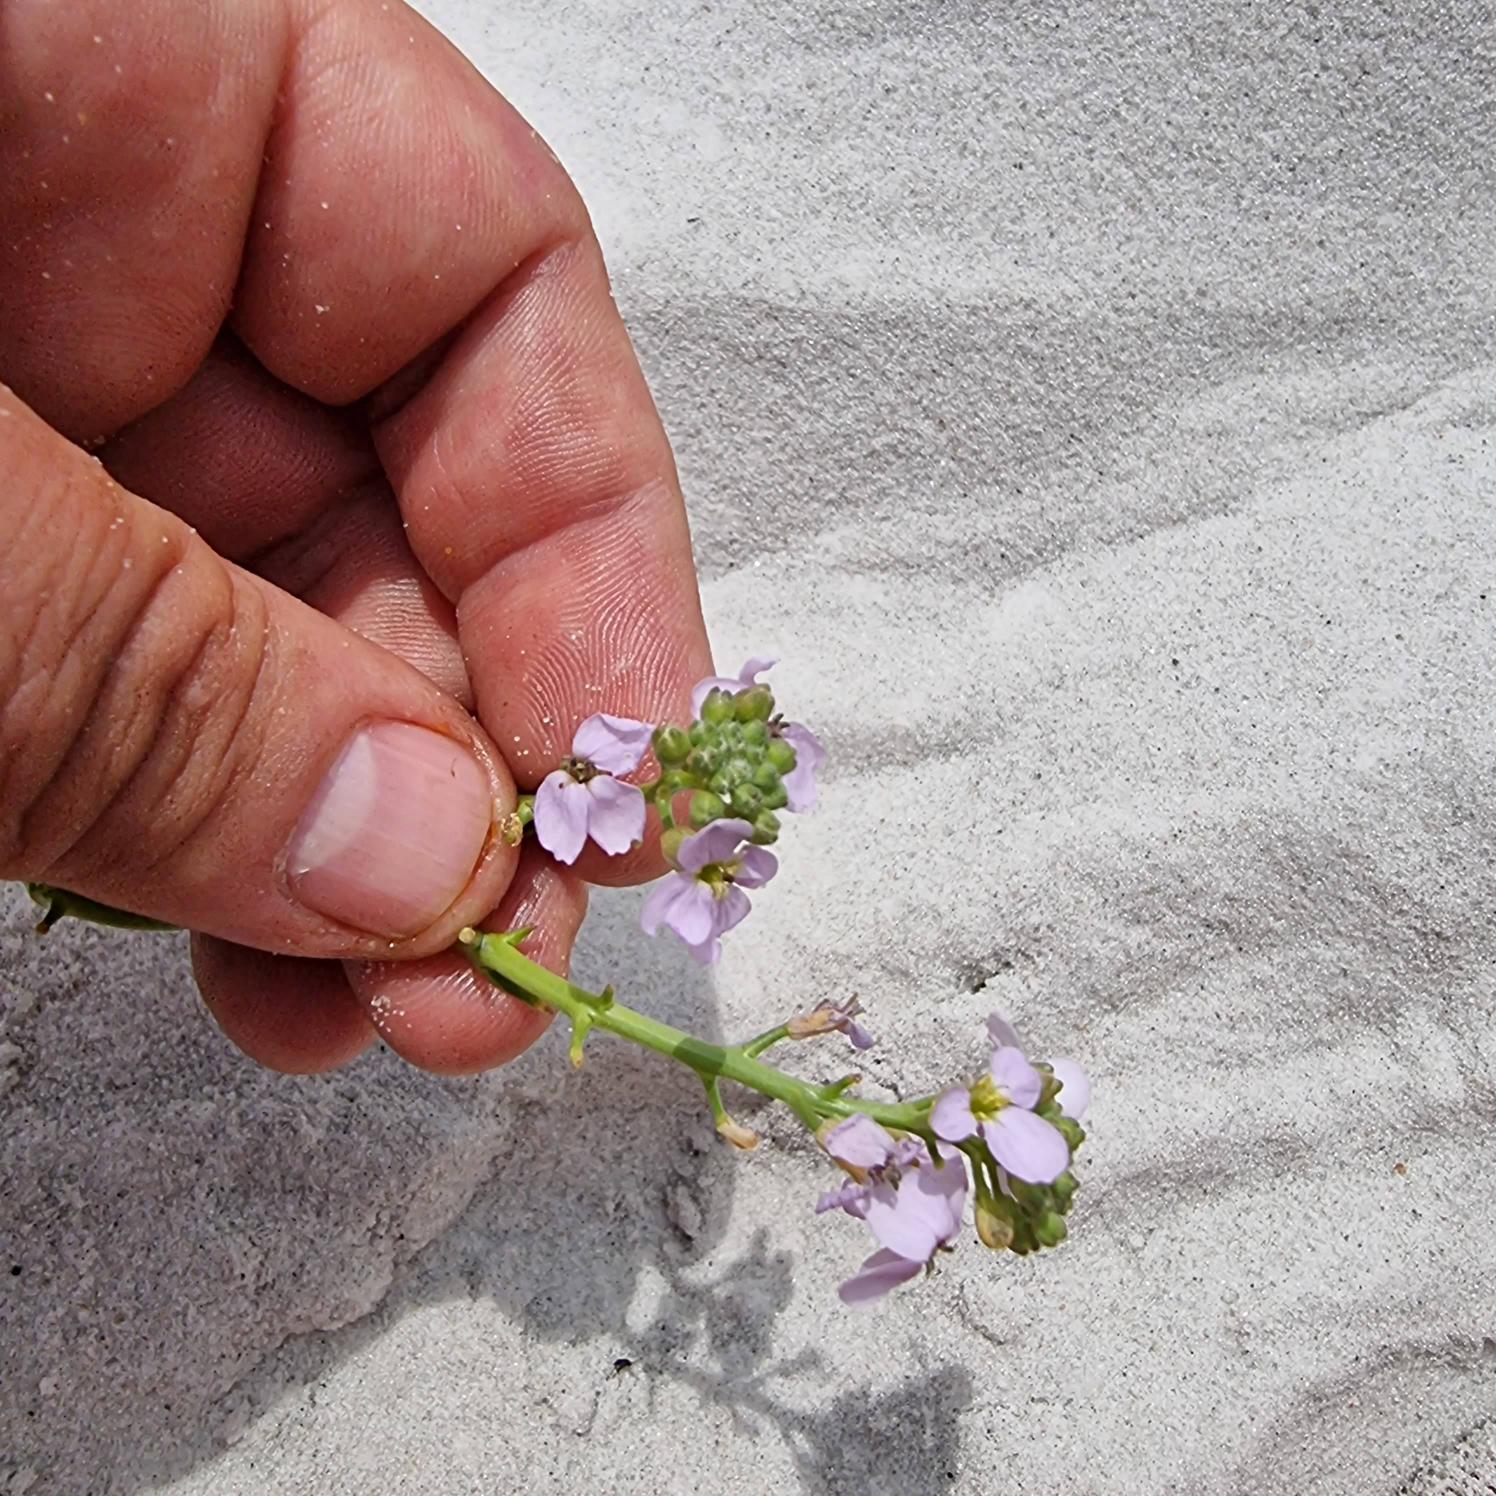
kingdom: Plantae
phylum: Tracheophyta
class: Magnoliopsida
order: Brassicales
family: Brassicaceae
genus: Cakile
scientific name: Cakile maritima
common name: Strandsennep
